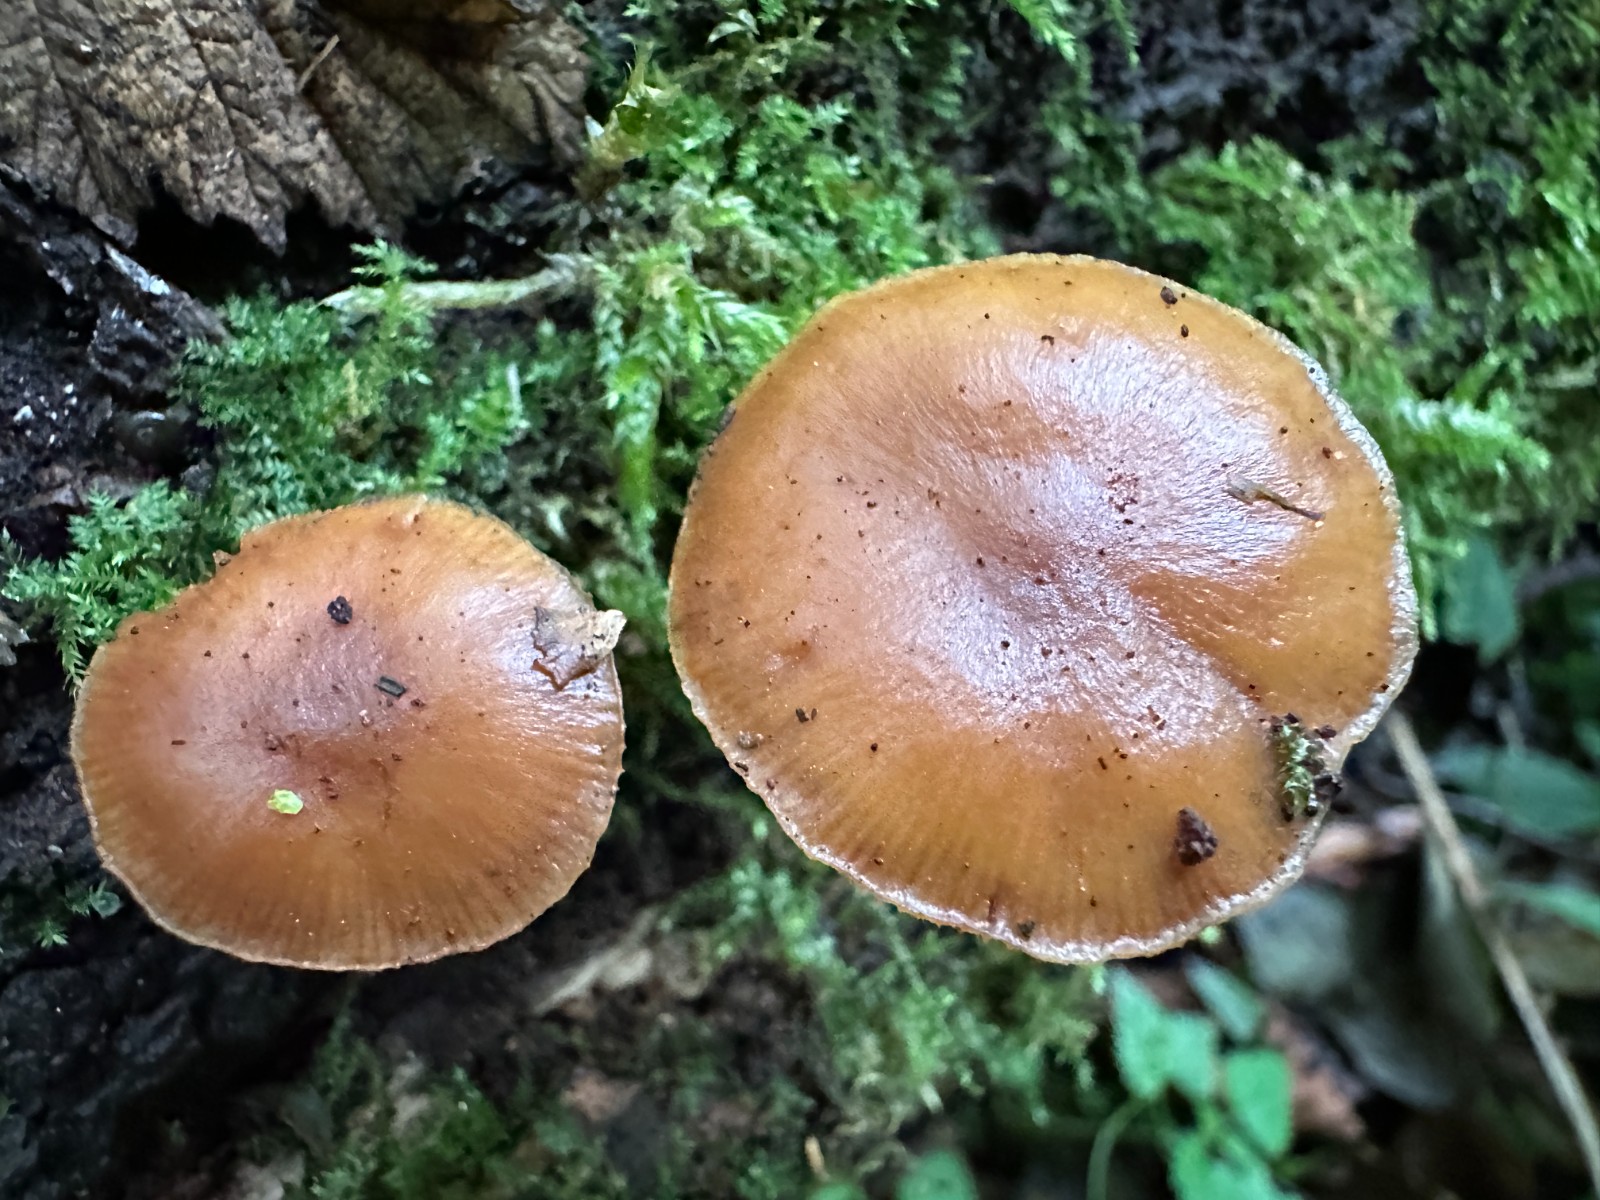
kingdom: Fungi
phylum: Basidiomycota
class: Agaricomycetes
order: Agaricales
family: Hymenogastraceae
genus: Galerina
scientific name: Galerina
